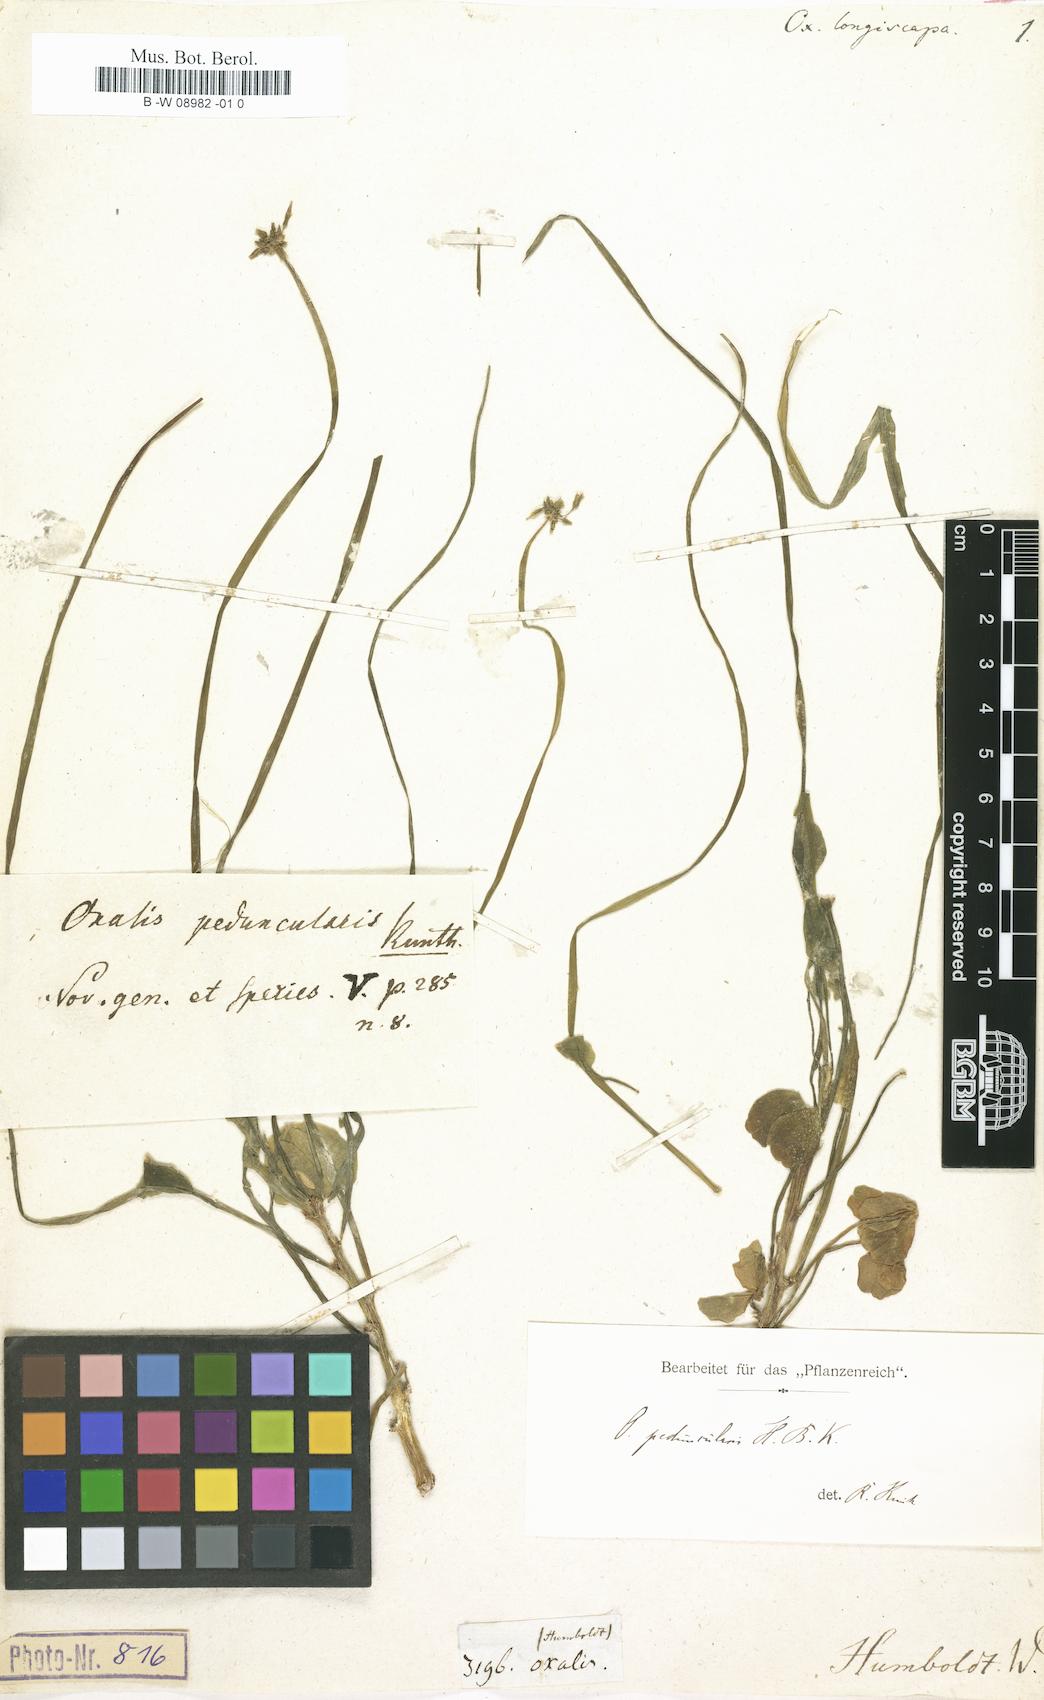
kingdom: Plantae
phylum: Tracheophyta
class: Magnoliopsida
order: Oxalidales
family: Oxalidaceae
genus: Oxalis
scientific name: Oxalis peduncularis
